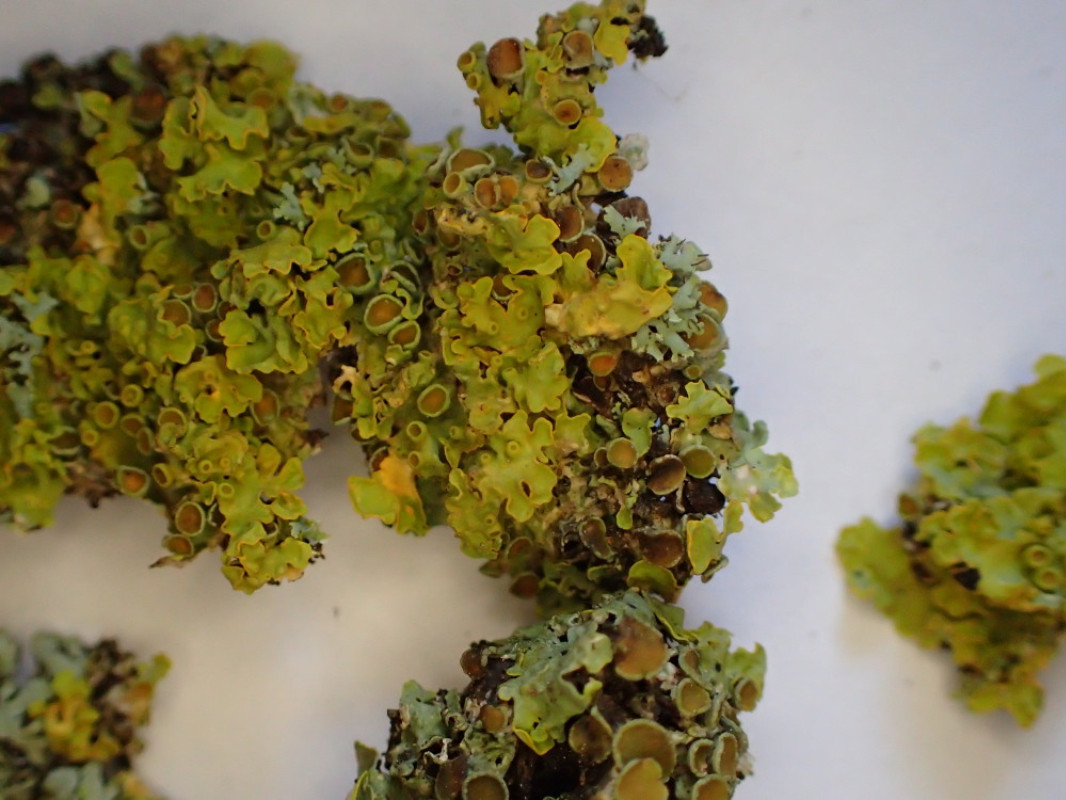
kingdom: Fungi
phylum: Ascomycota
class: Lecanoromycetes
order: Teloschistales
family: Teloschistaceae
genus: Xanthoria
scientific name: Xanthoria parietina
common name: almindelig væggelav
